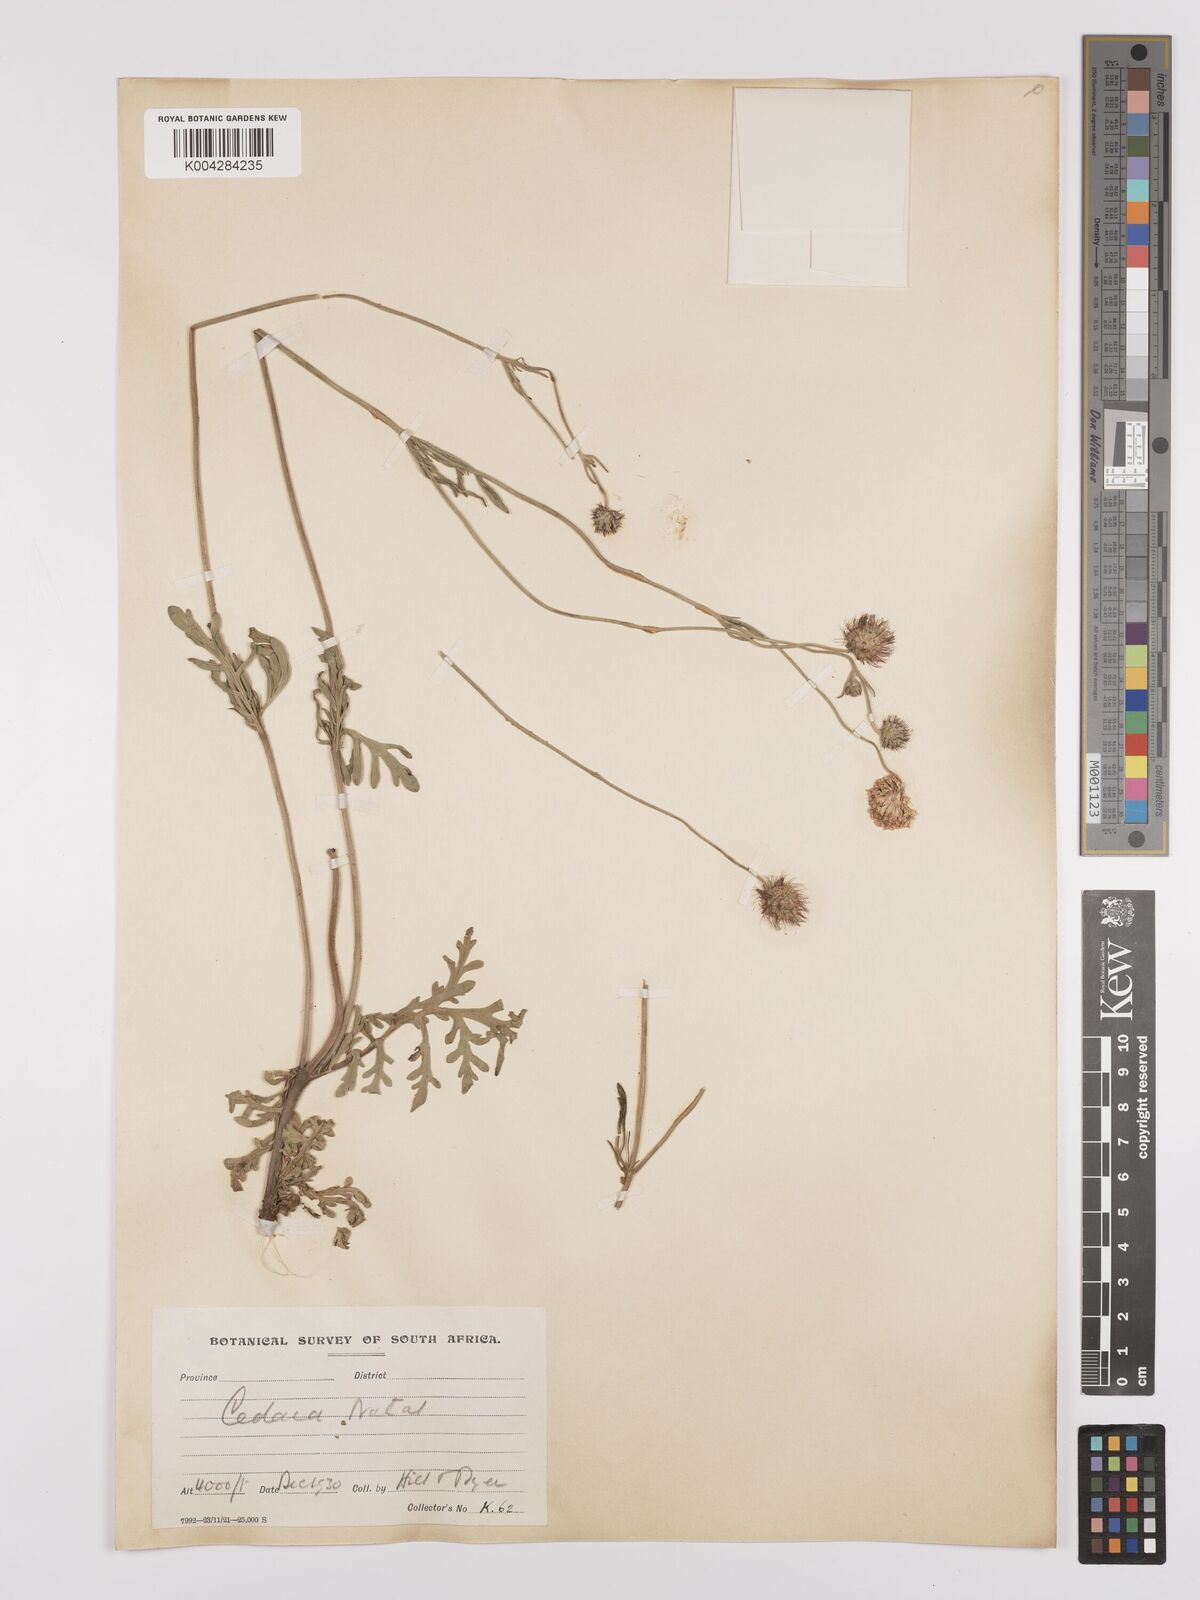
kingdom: Plantae
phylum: Tracheophyta
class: Magnoliopsida
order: Dipsacales
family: Caprifoliaceae
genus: Scabiosa
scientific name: Scabiosa columbaria
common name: Small scabious
